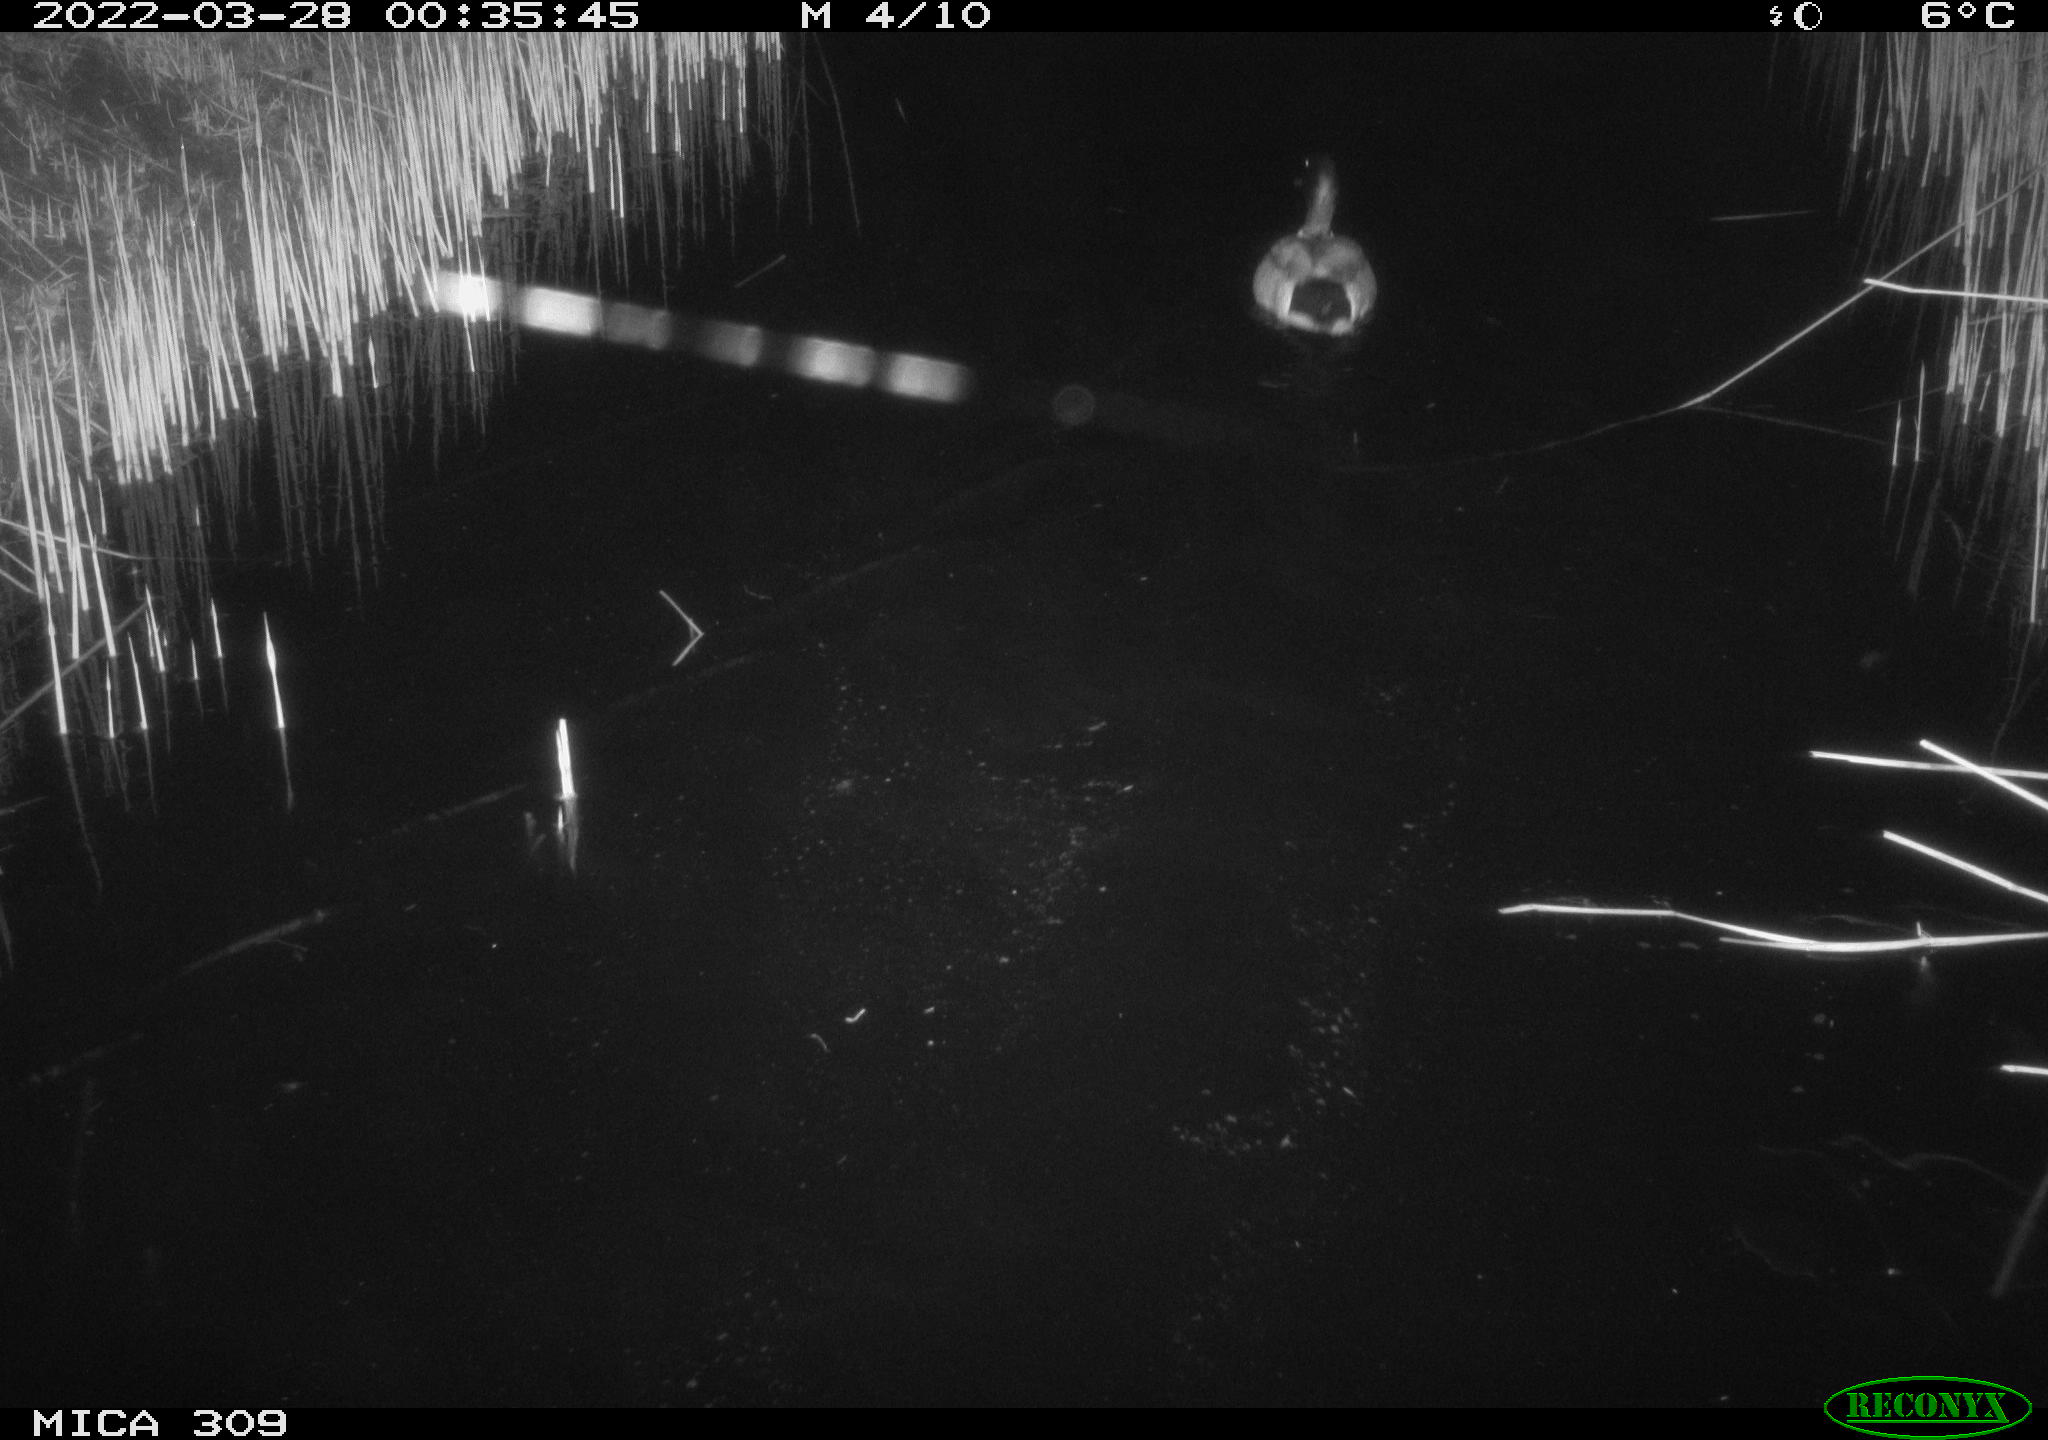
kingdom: Animalia
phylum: Chordata
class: Aves
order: Anseriformes
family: Anatidae
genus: Anas
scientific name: Anas platyrhynchos
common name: Mallard
